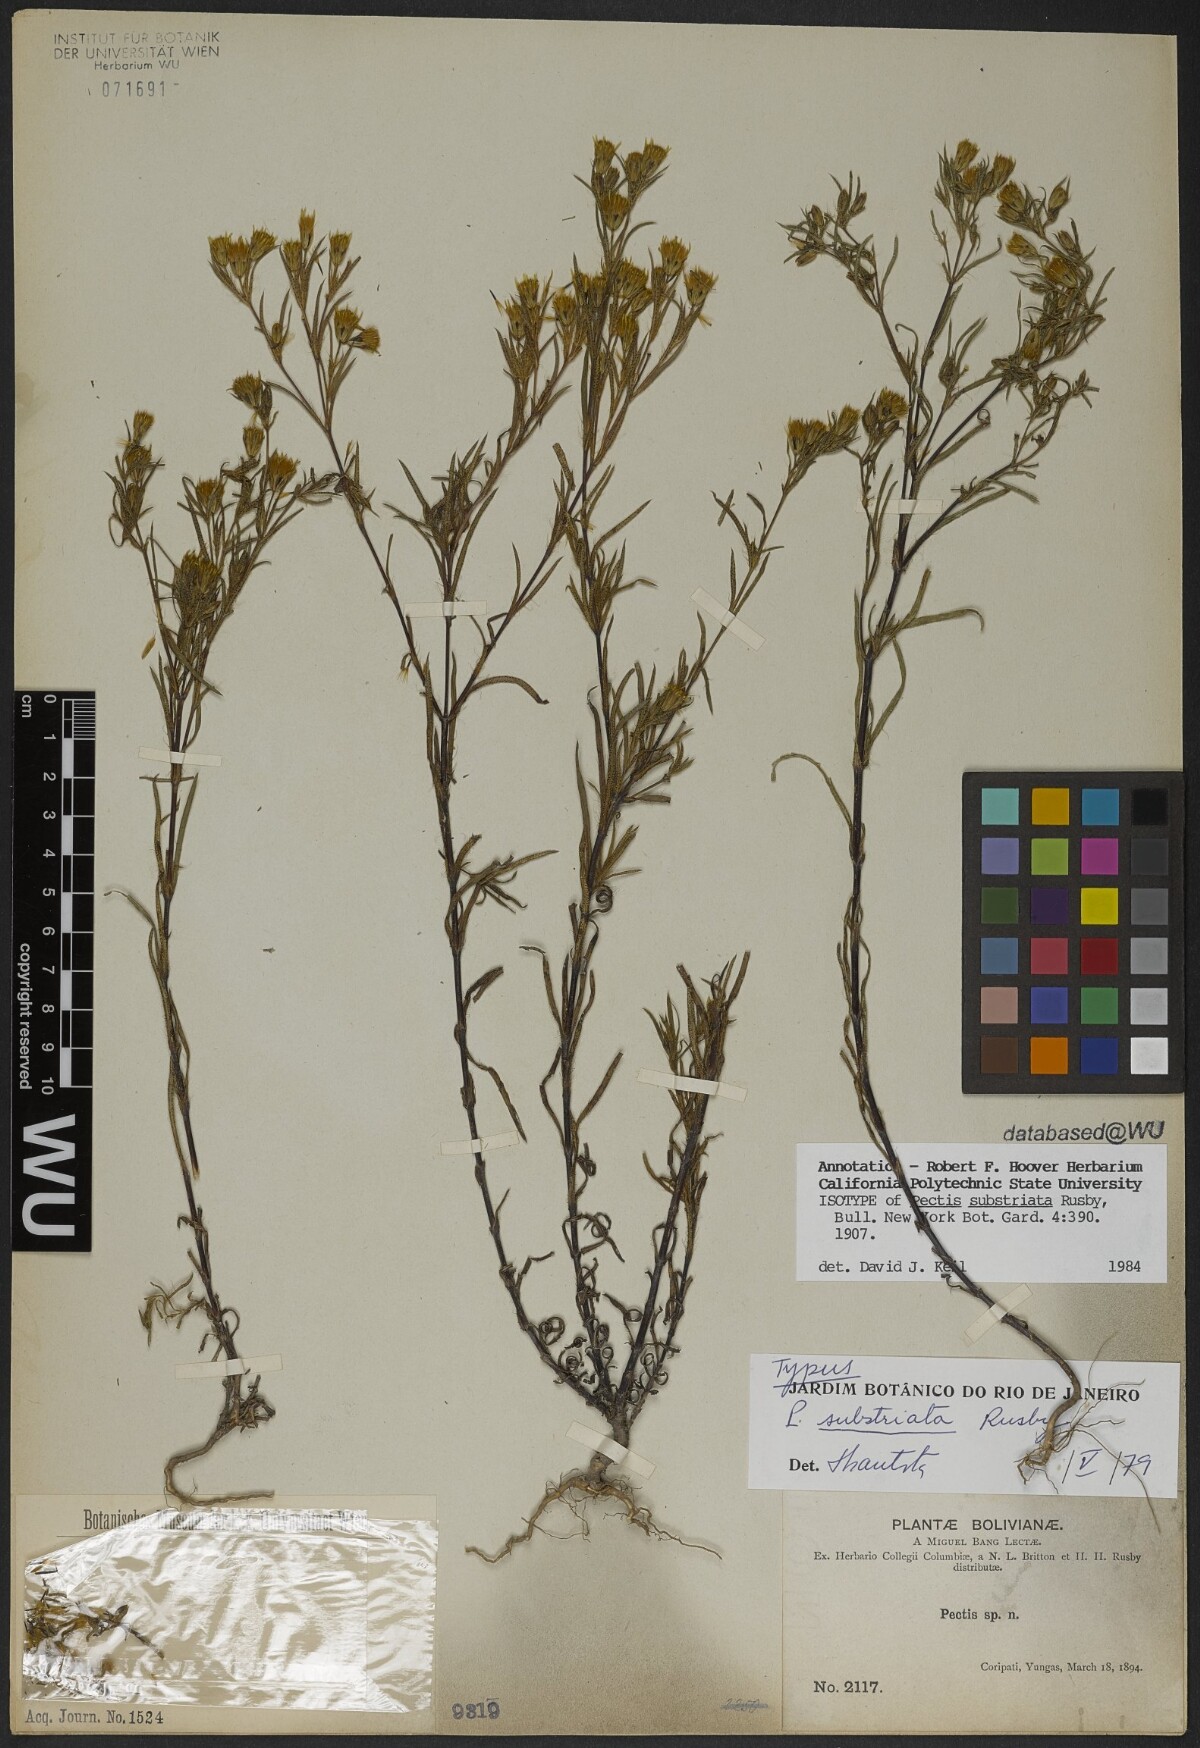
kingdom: Plantae
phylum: Tracheophyta
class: Magnoliopsida
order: Asterales
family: Asteraceae
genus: Pectis
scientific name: Pectis substriata
